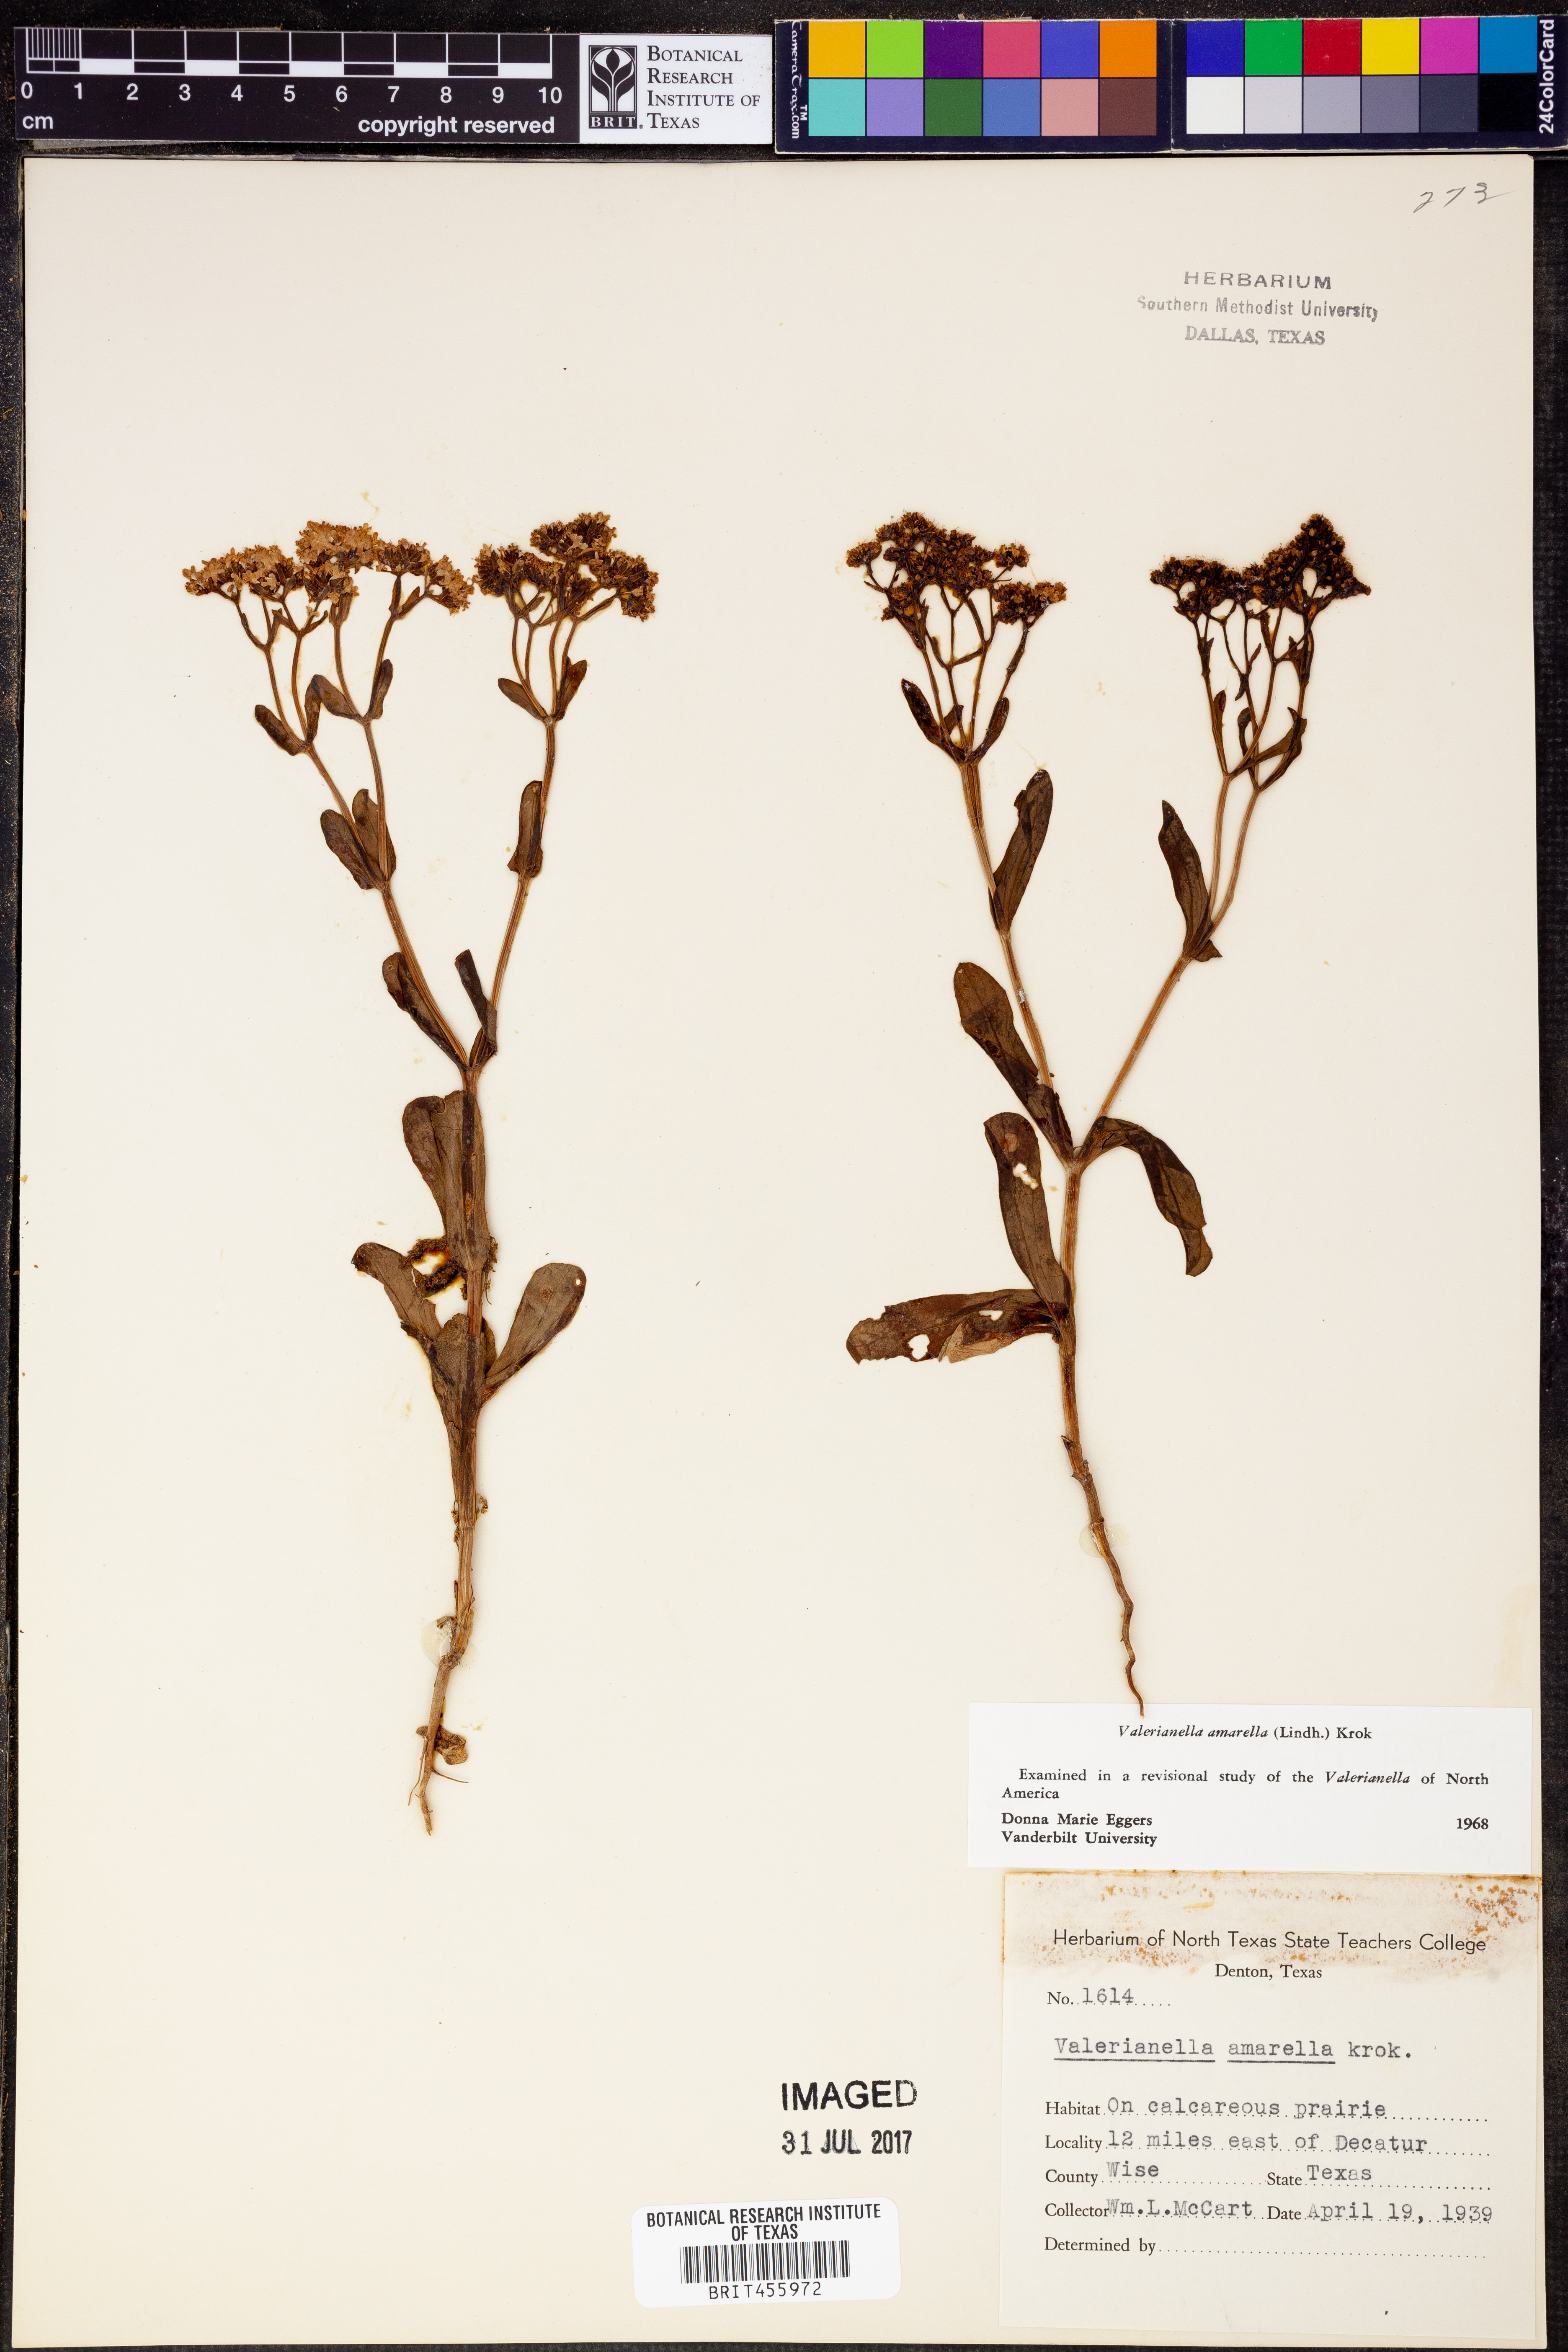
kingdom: Plantae
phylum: Tracheophyta
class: Magnoliopsida
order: Dipsacales
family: Caprifoliaceae
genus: Valerianella
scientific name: Valerianella amarella
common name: Hariy cornsalad
